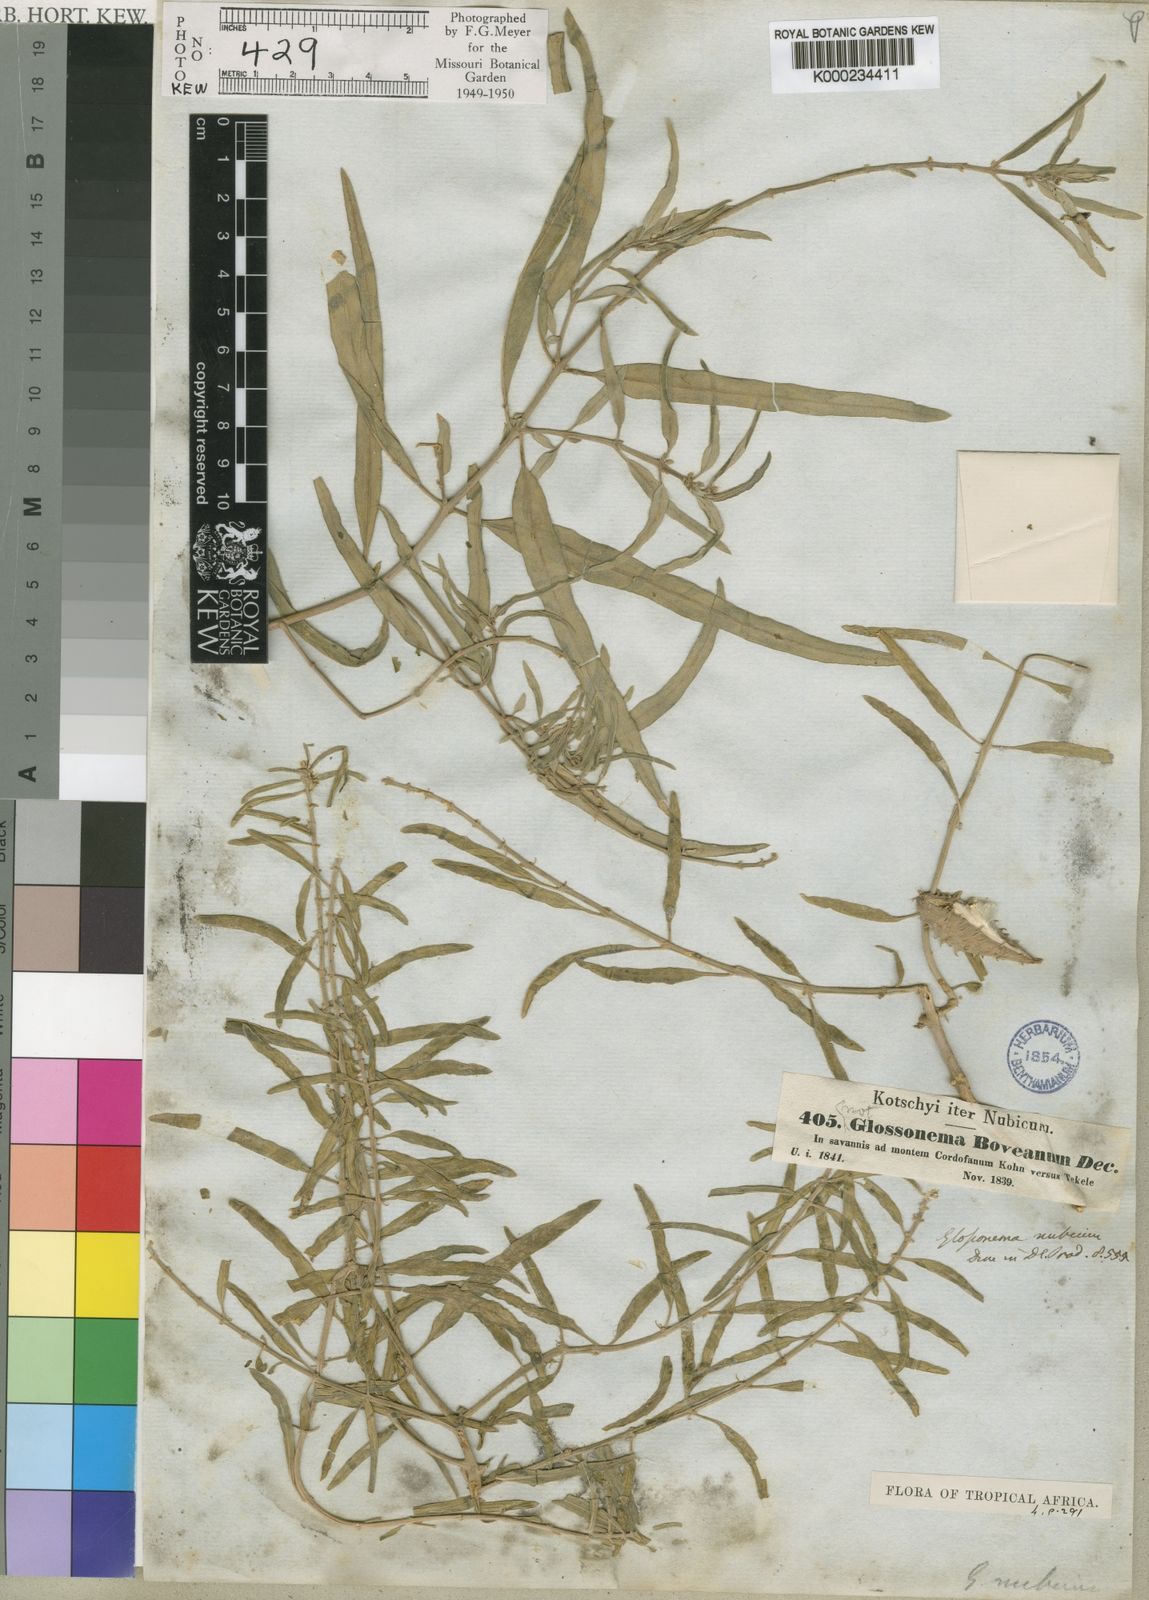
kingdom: Plantae
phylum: Tracheophyta
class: Magnoliopsida
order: Gentianales
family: Apocynaceae
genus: Cynanchum
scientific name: Cynanchum boveanum
